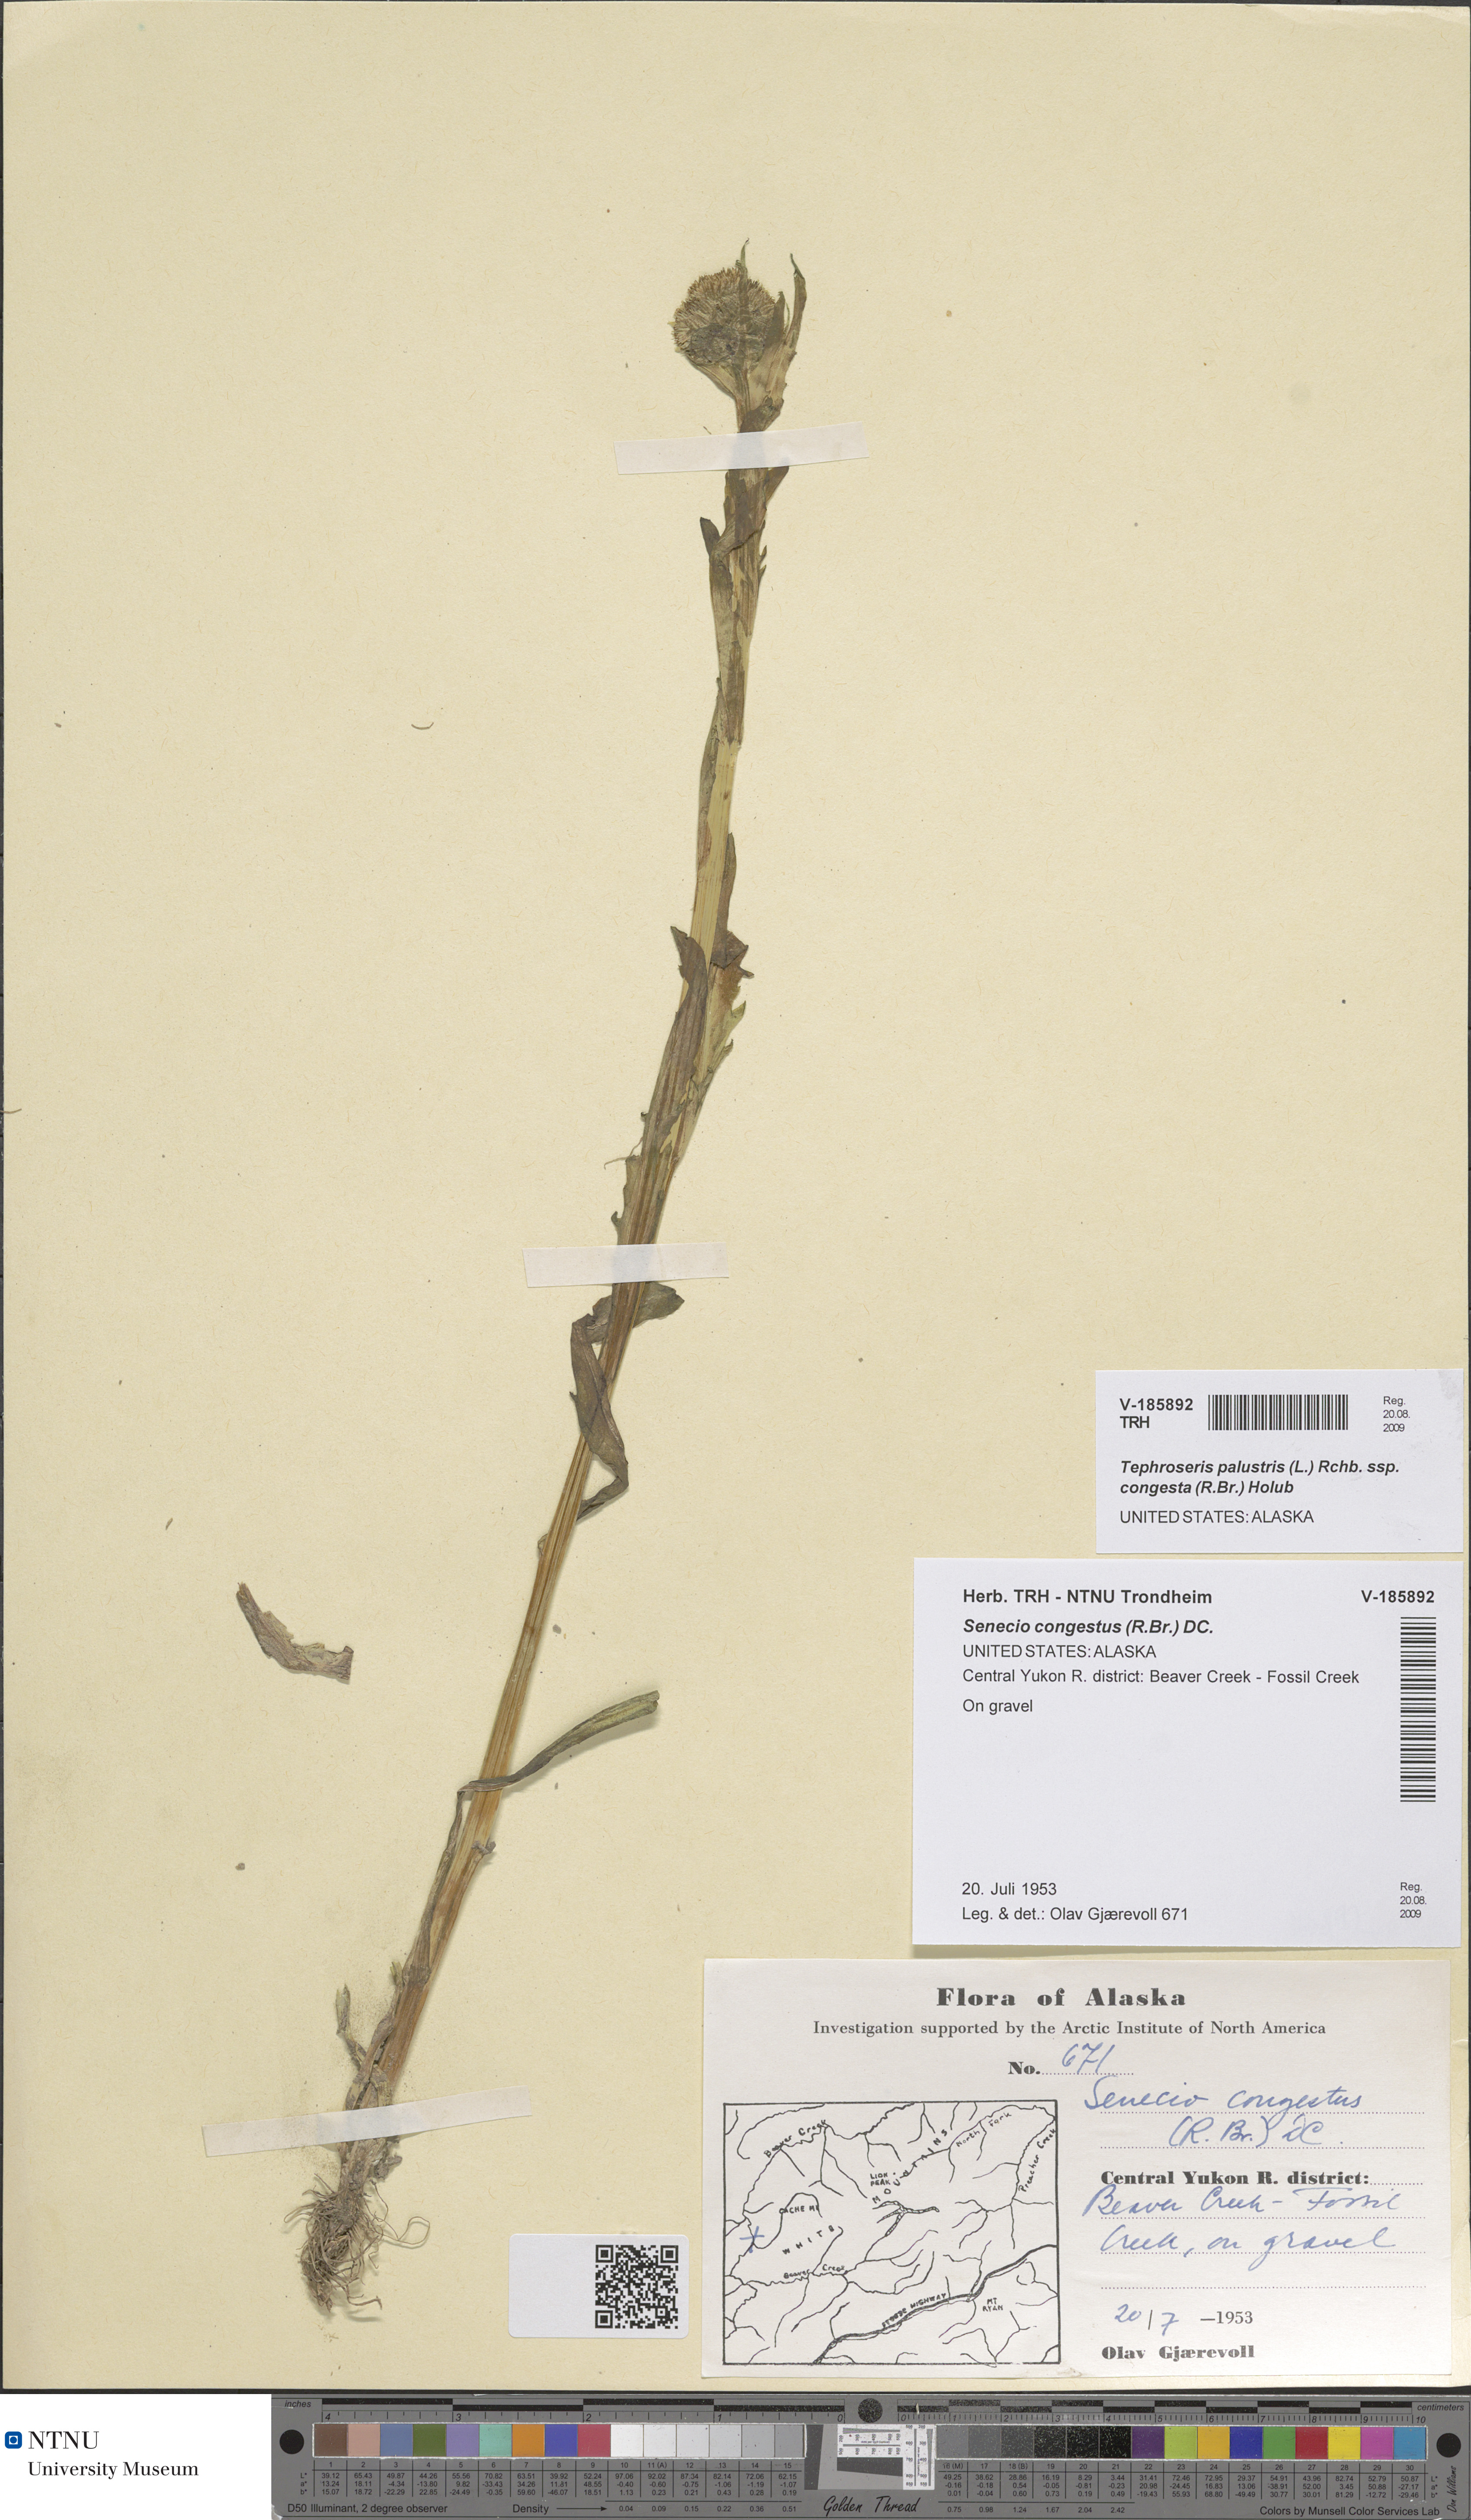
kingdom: Plantae
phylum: Tracheophyta
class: Magnoliopsida
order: Asterales
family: Asteraceae
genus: Tephroseris
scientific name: Tephroseris palustris
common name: Marsh fleawort
